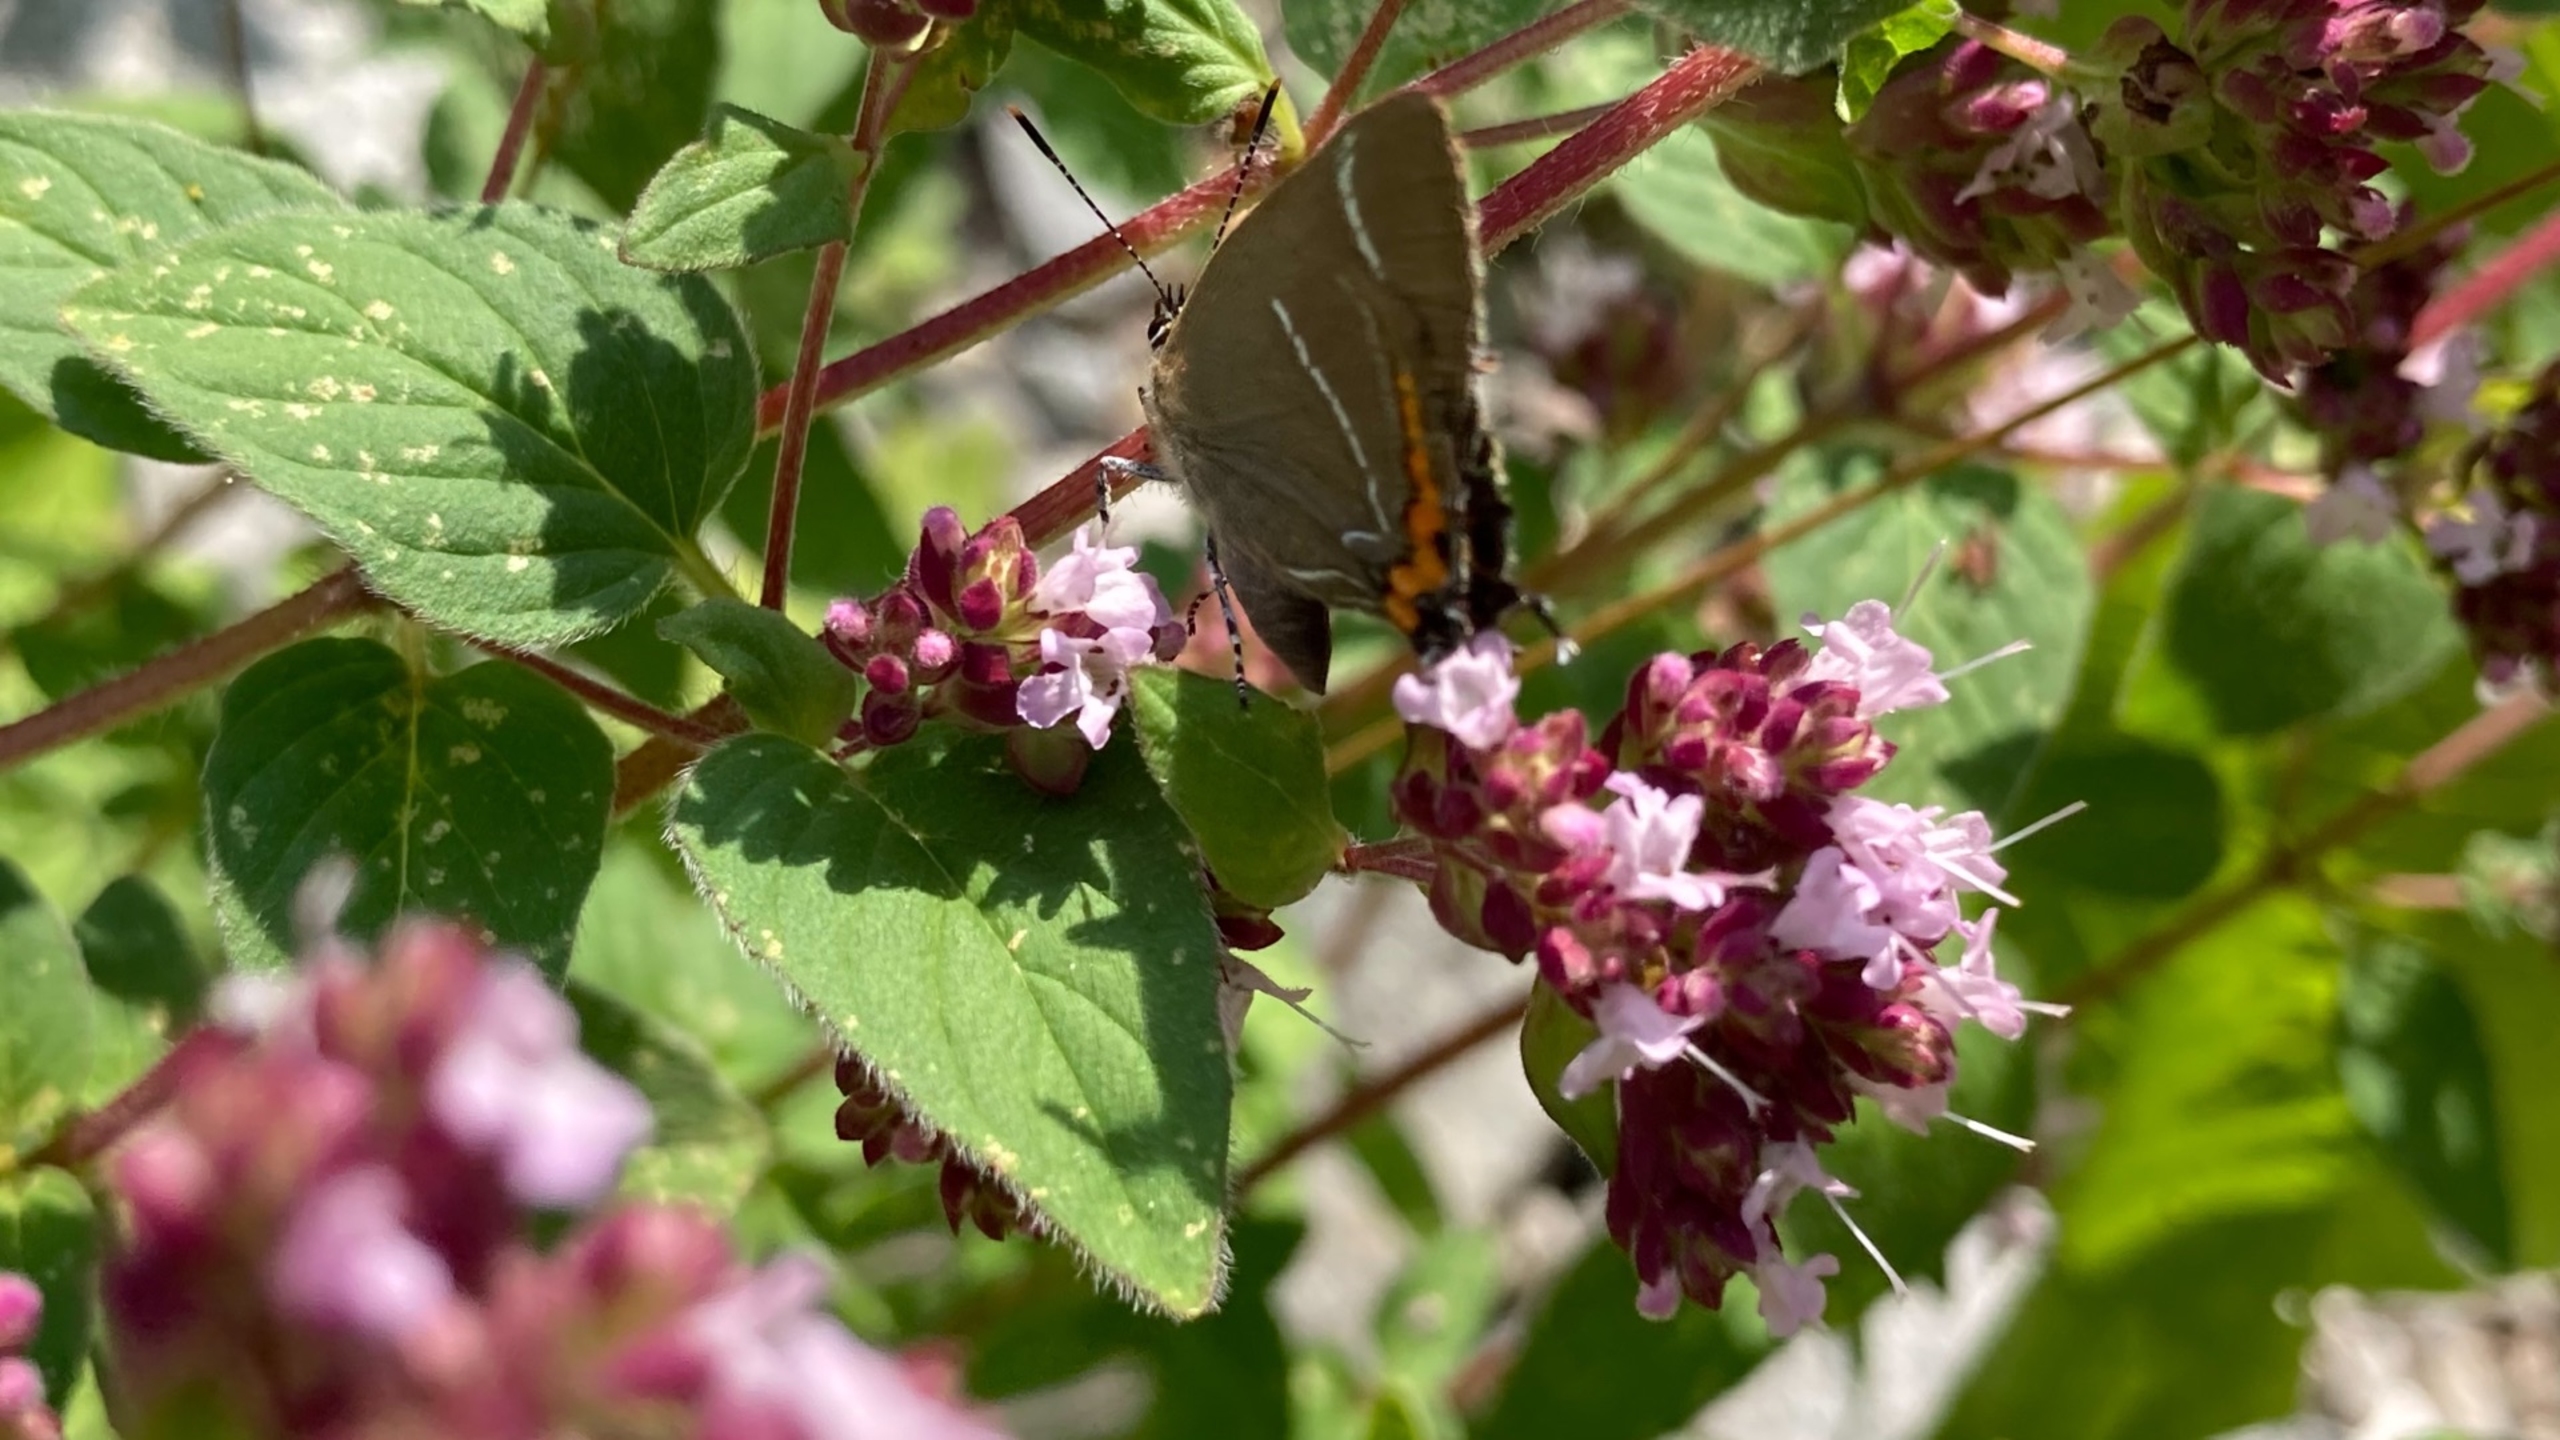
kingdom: Animalia
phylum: Arthropoda
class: Insecta
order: Lepidoptera
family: Lycaenidae
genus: Satyrium
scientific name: Satyrium w-album
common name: Det hvide W
